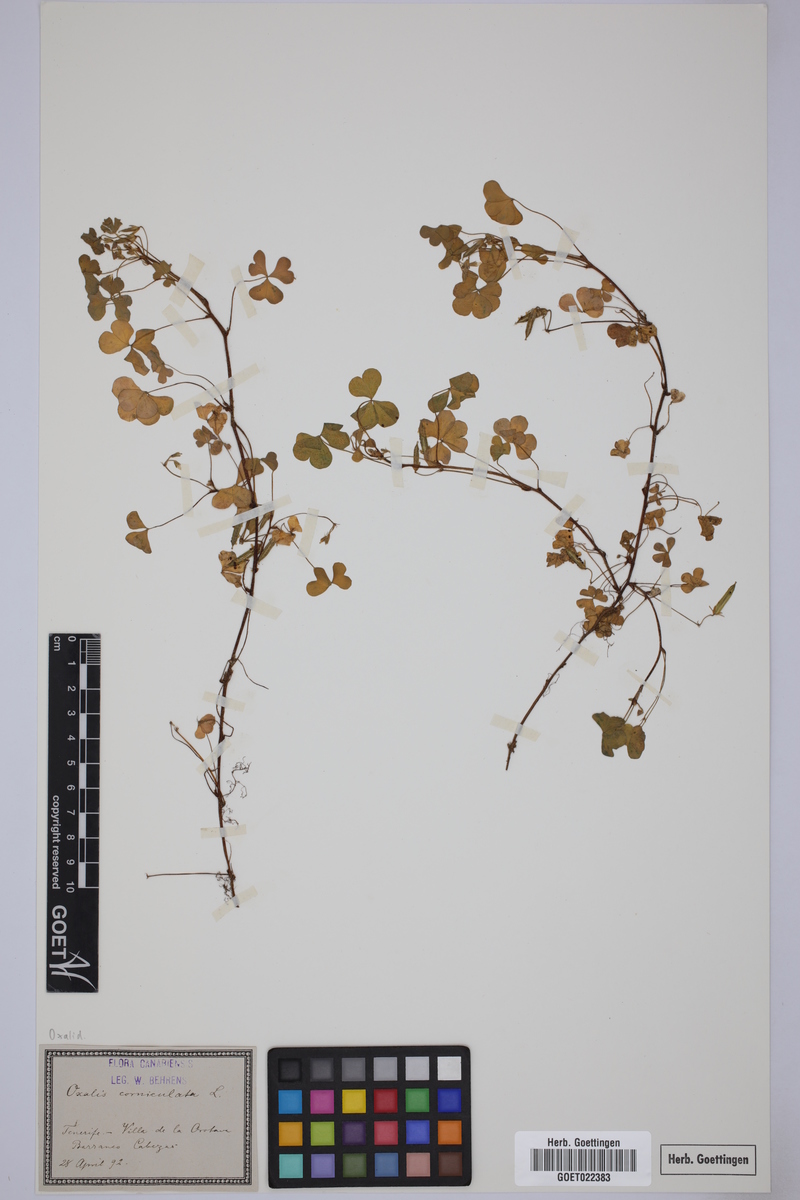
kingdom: Plantae
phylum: Tracheophyta
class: Magnoliopsida
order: Oxalidales
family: Oxalidaceae
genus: Oxalis
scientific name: Oxalis corniculata
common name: Procumbent yellow-sorrel
